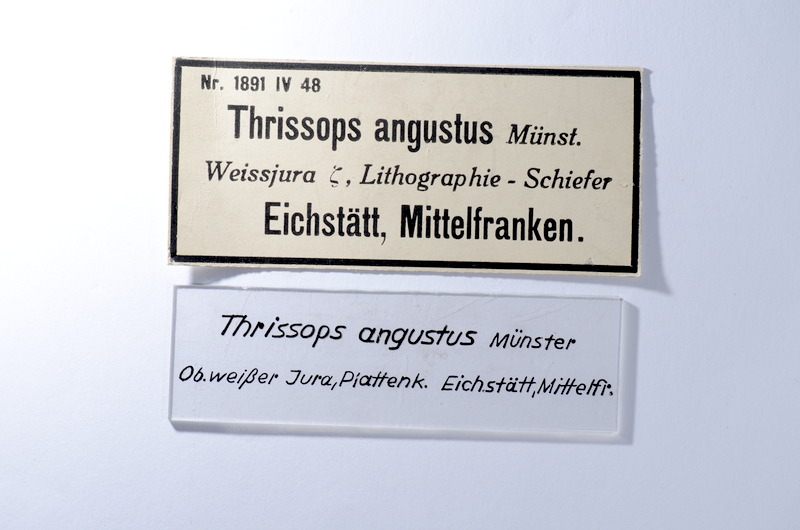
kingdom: Animalia
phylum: Chordata
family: Allothrissopidae
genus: Allothrissops
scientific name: Allothrissops mesogaster
